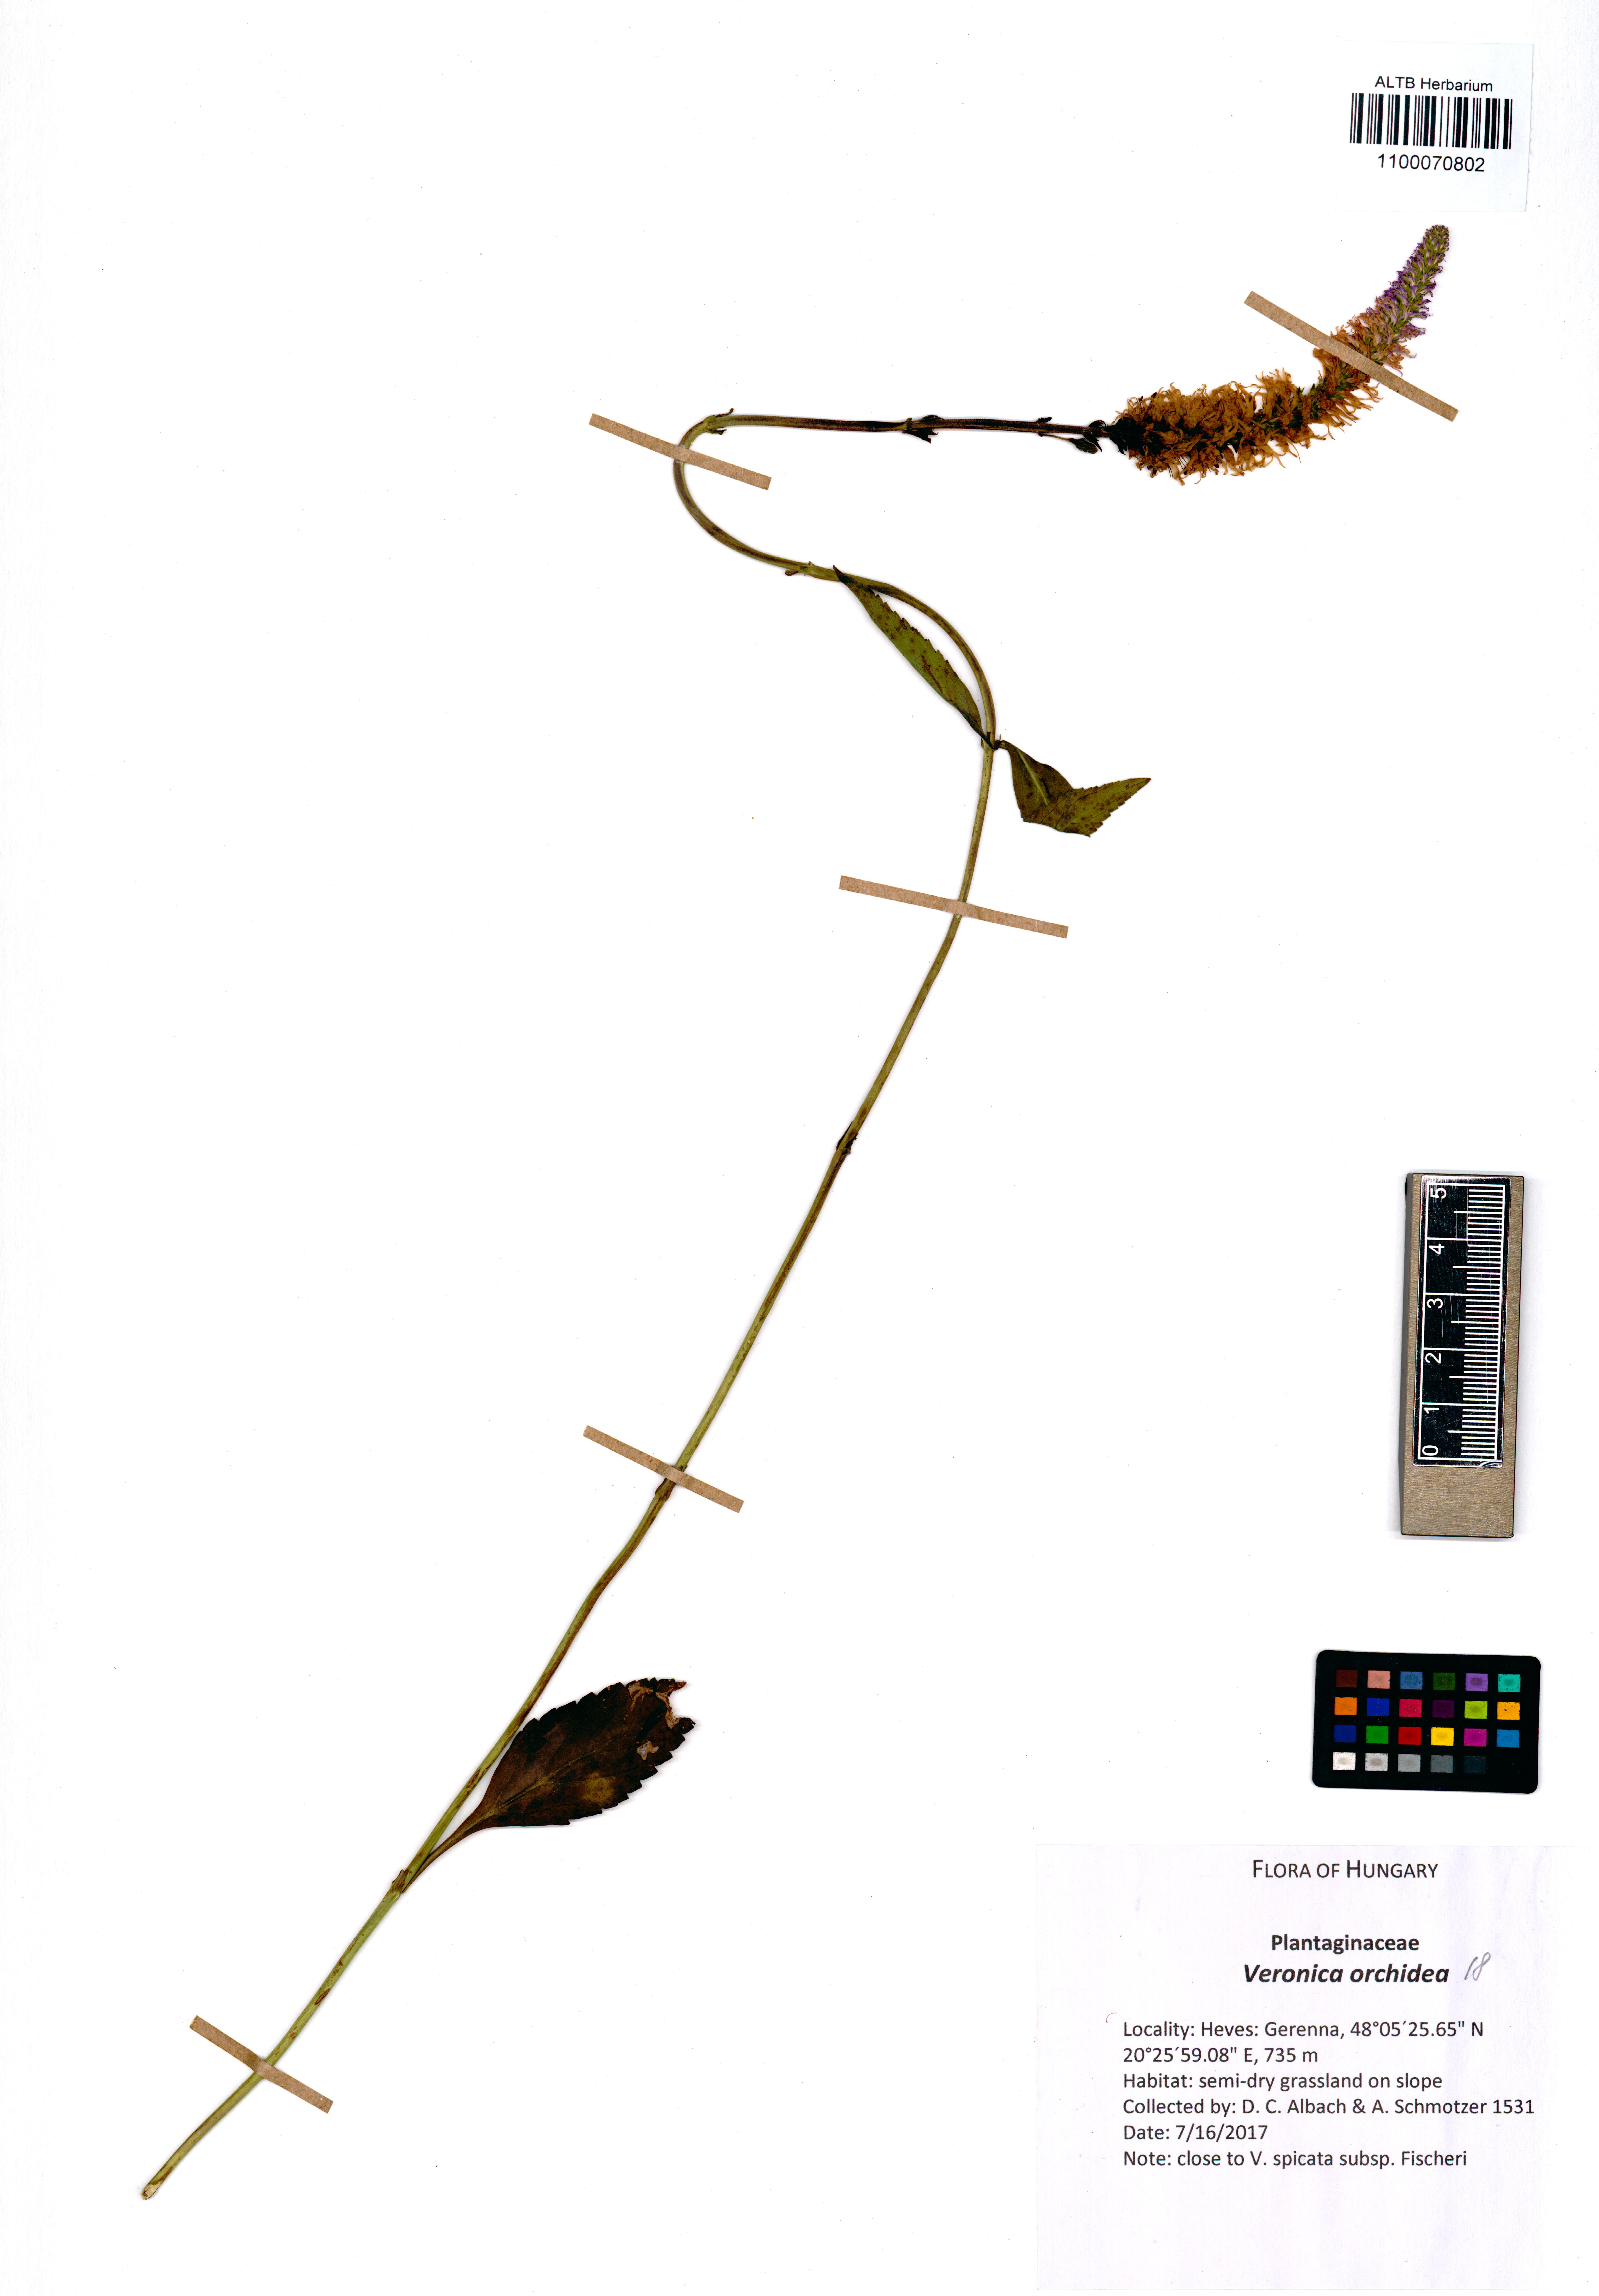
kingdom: Plantae
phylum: Tracheophyta
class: Magnoliopsida
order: Lamiales
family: Plantaginaceae
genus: Veronica
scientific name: Veronica orchidea
